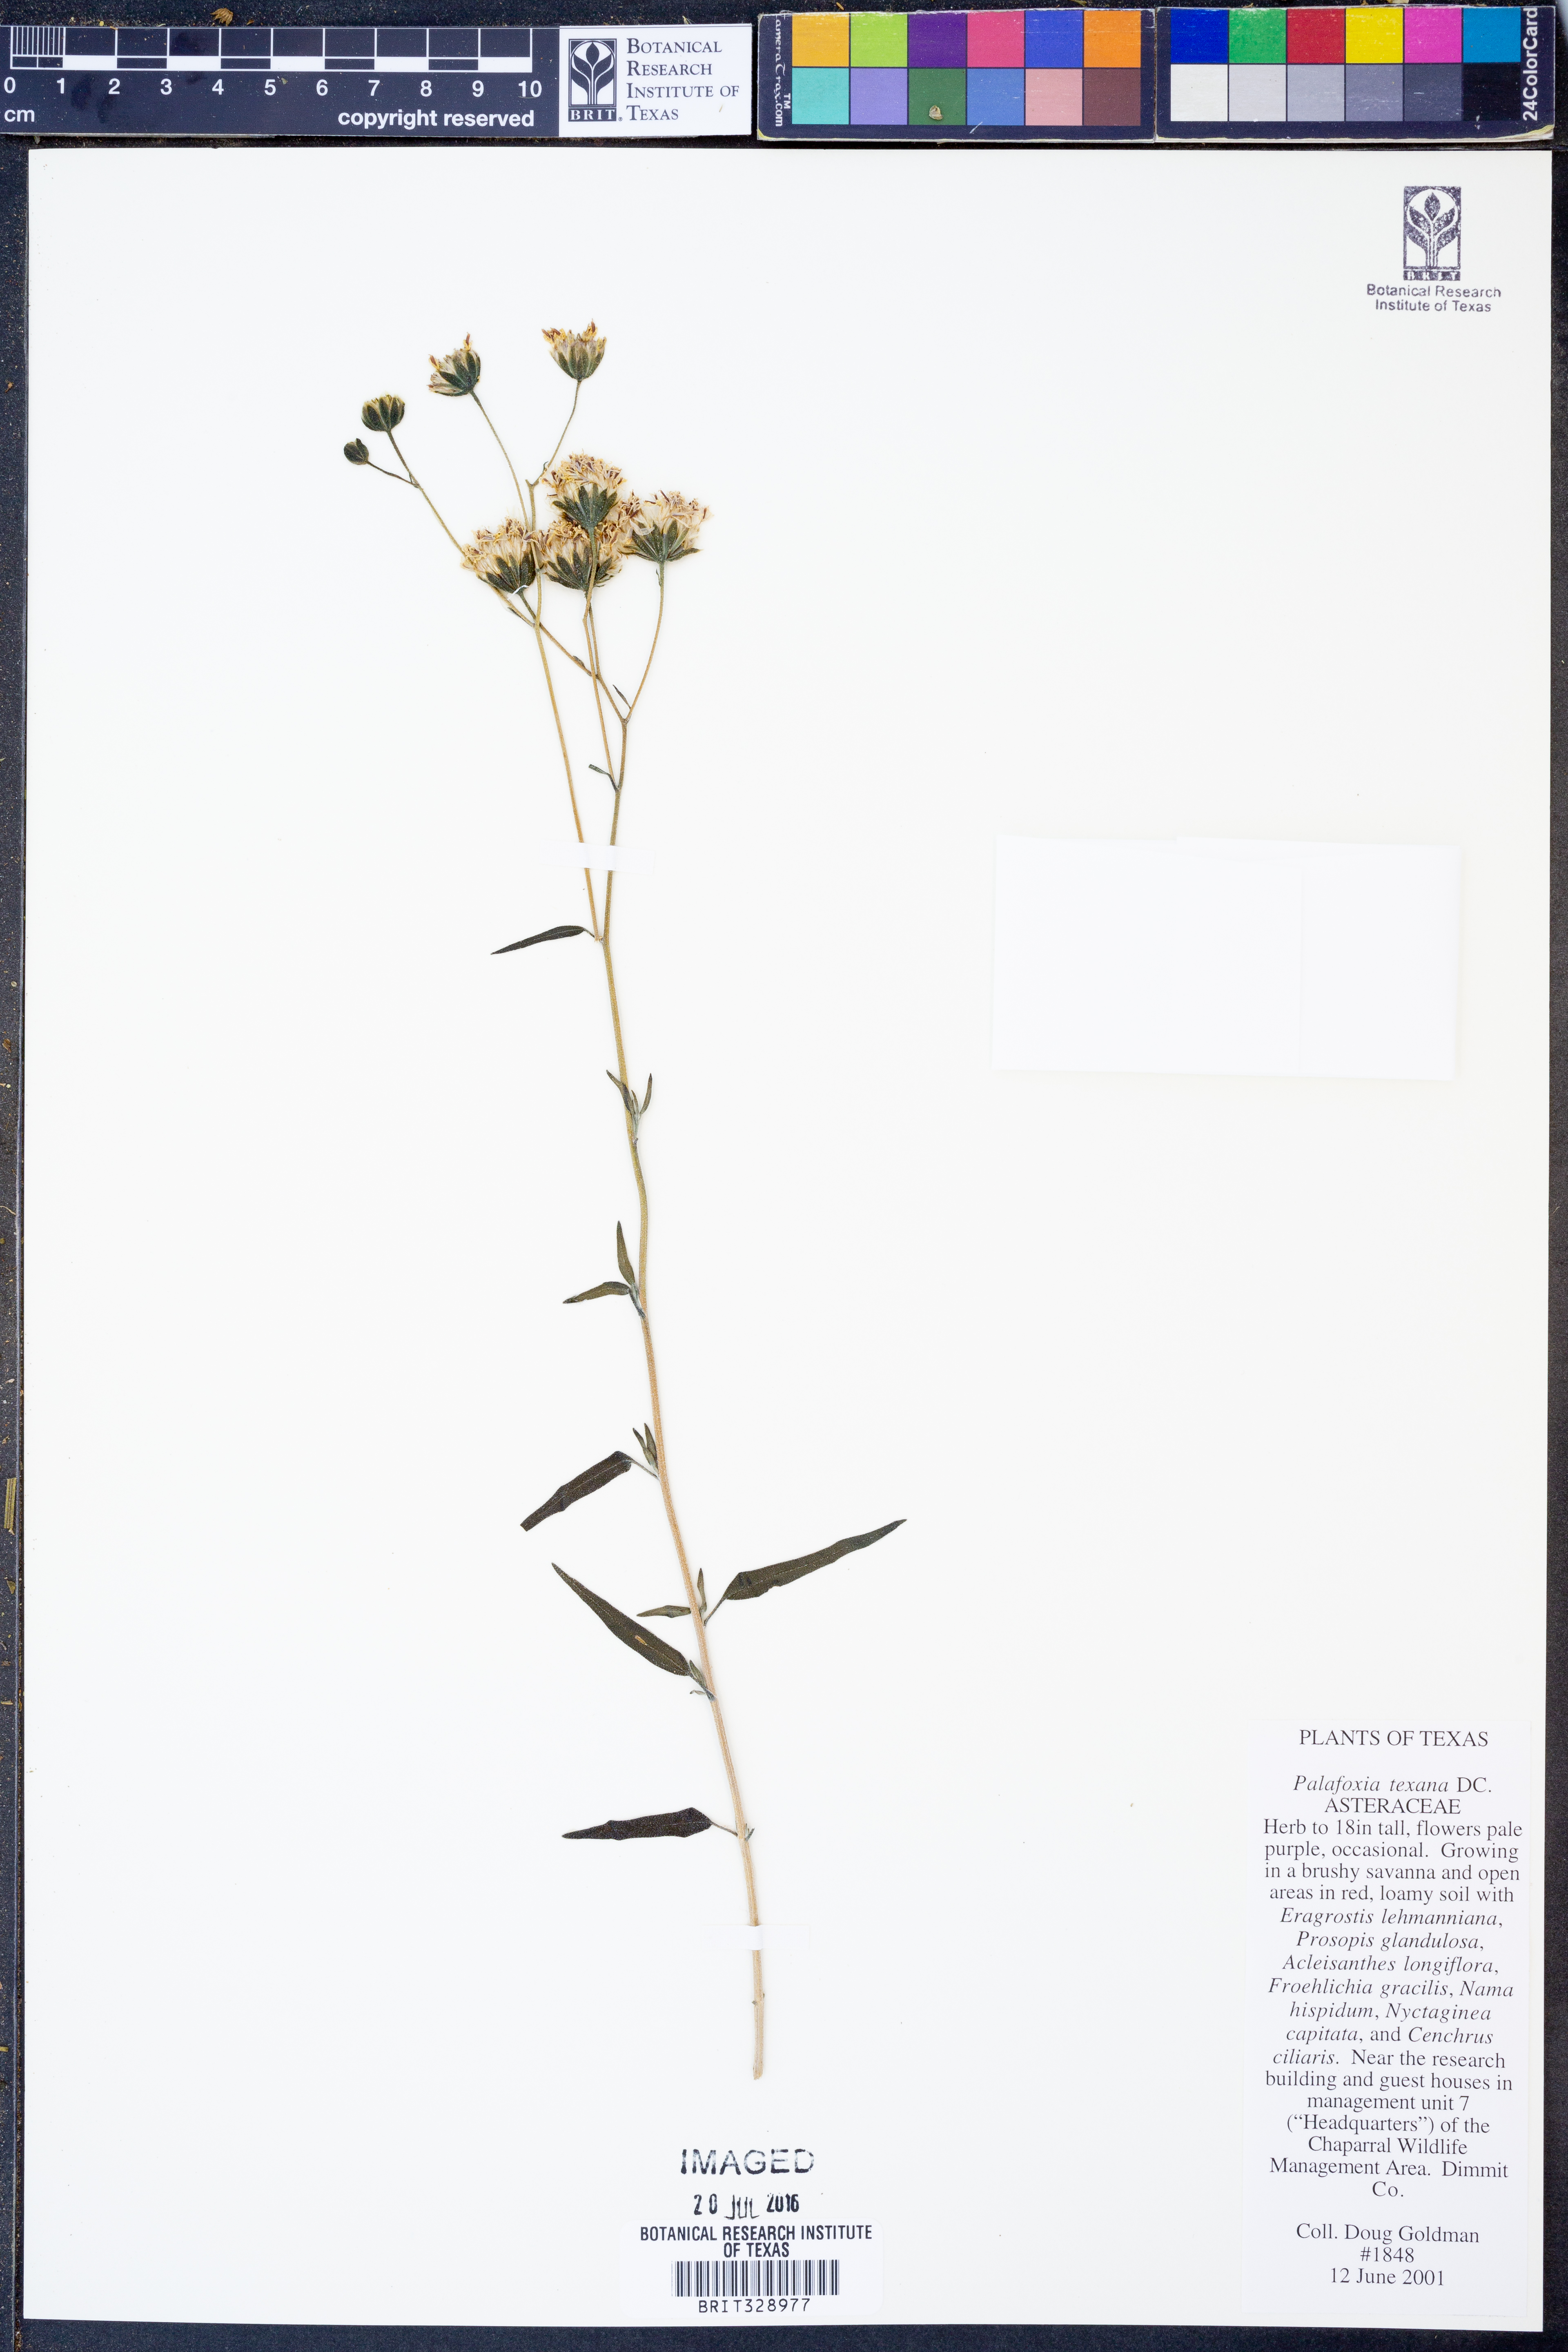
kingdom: Plantae
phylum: Tracheophyta
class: Magnoliopsida
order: Asterales
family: Asteraceae
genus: Palafoxia
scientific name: Palafoxia texana
